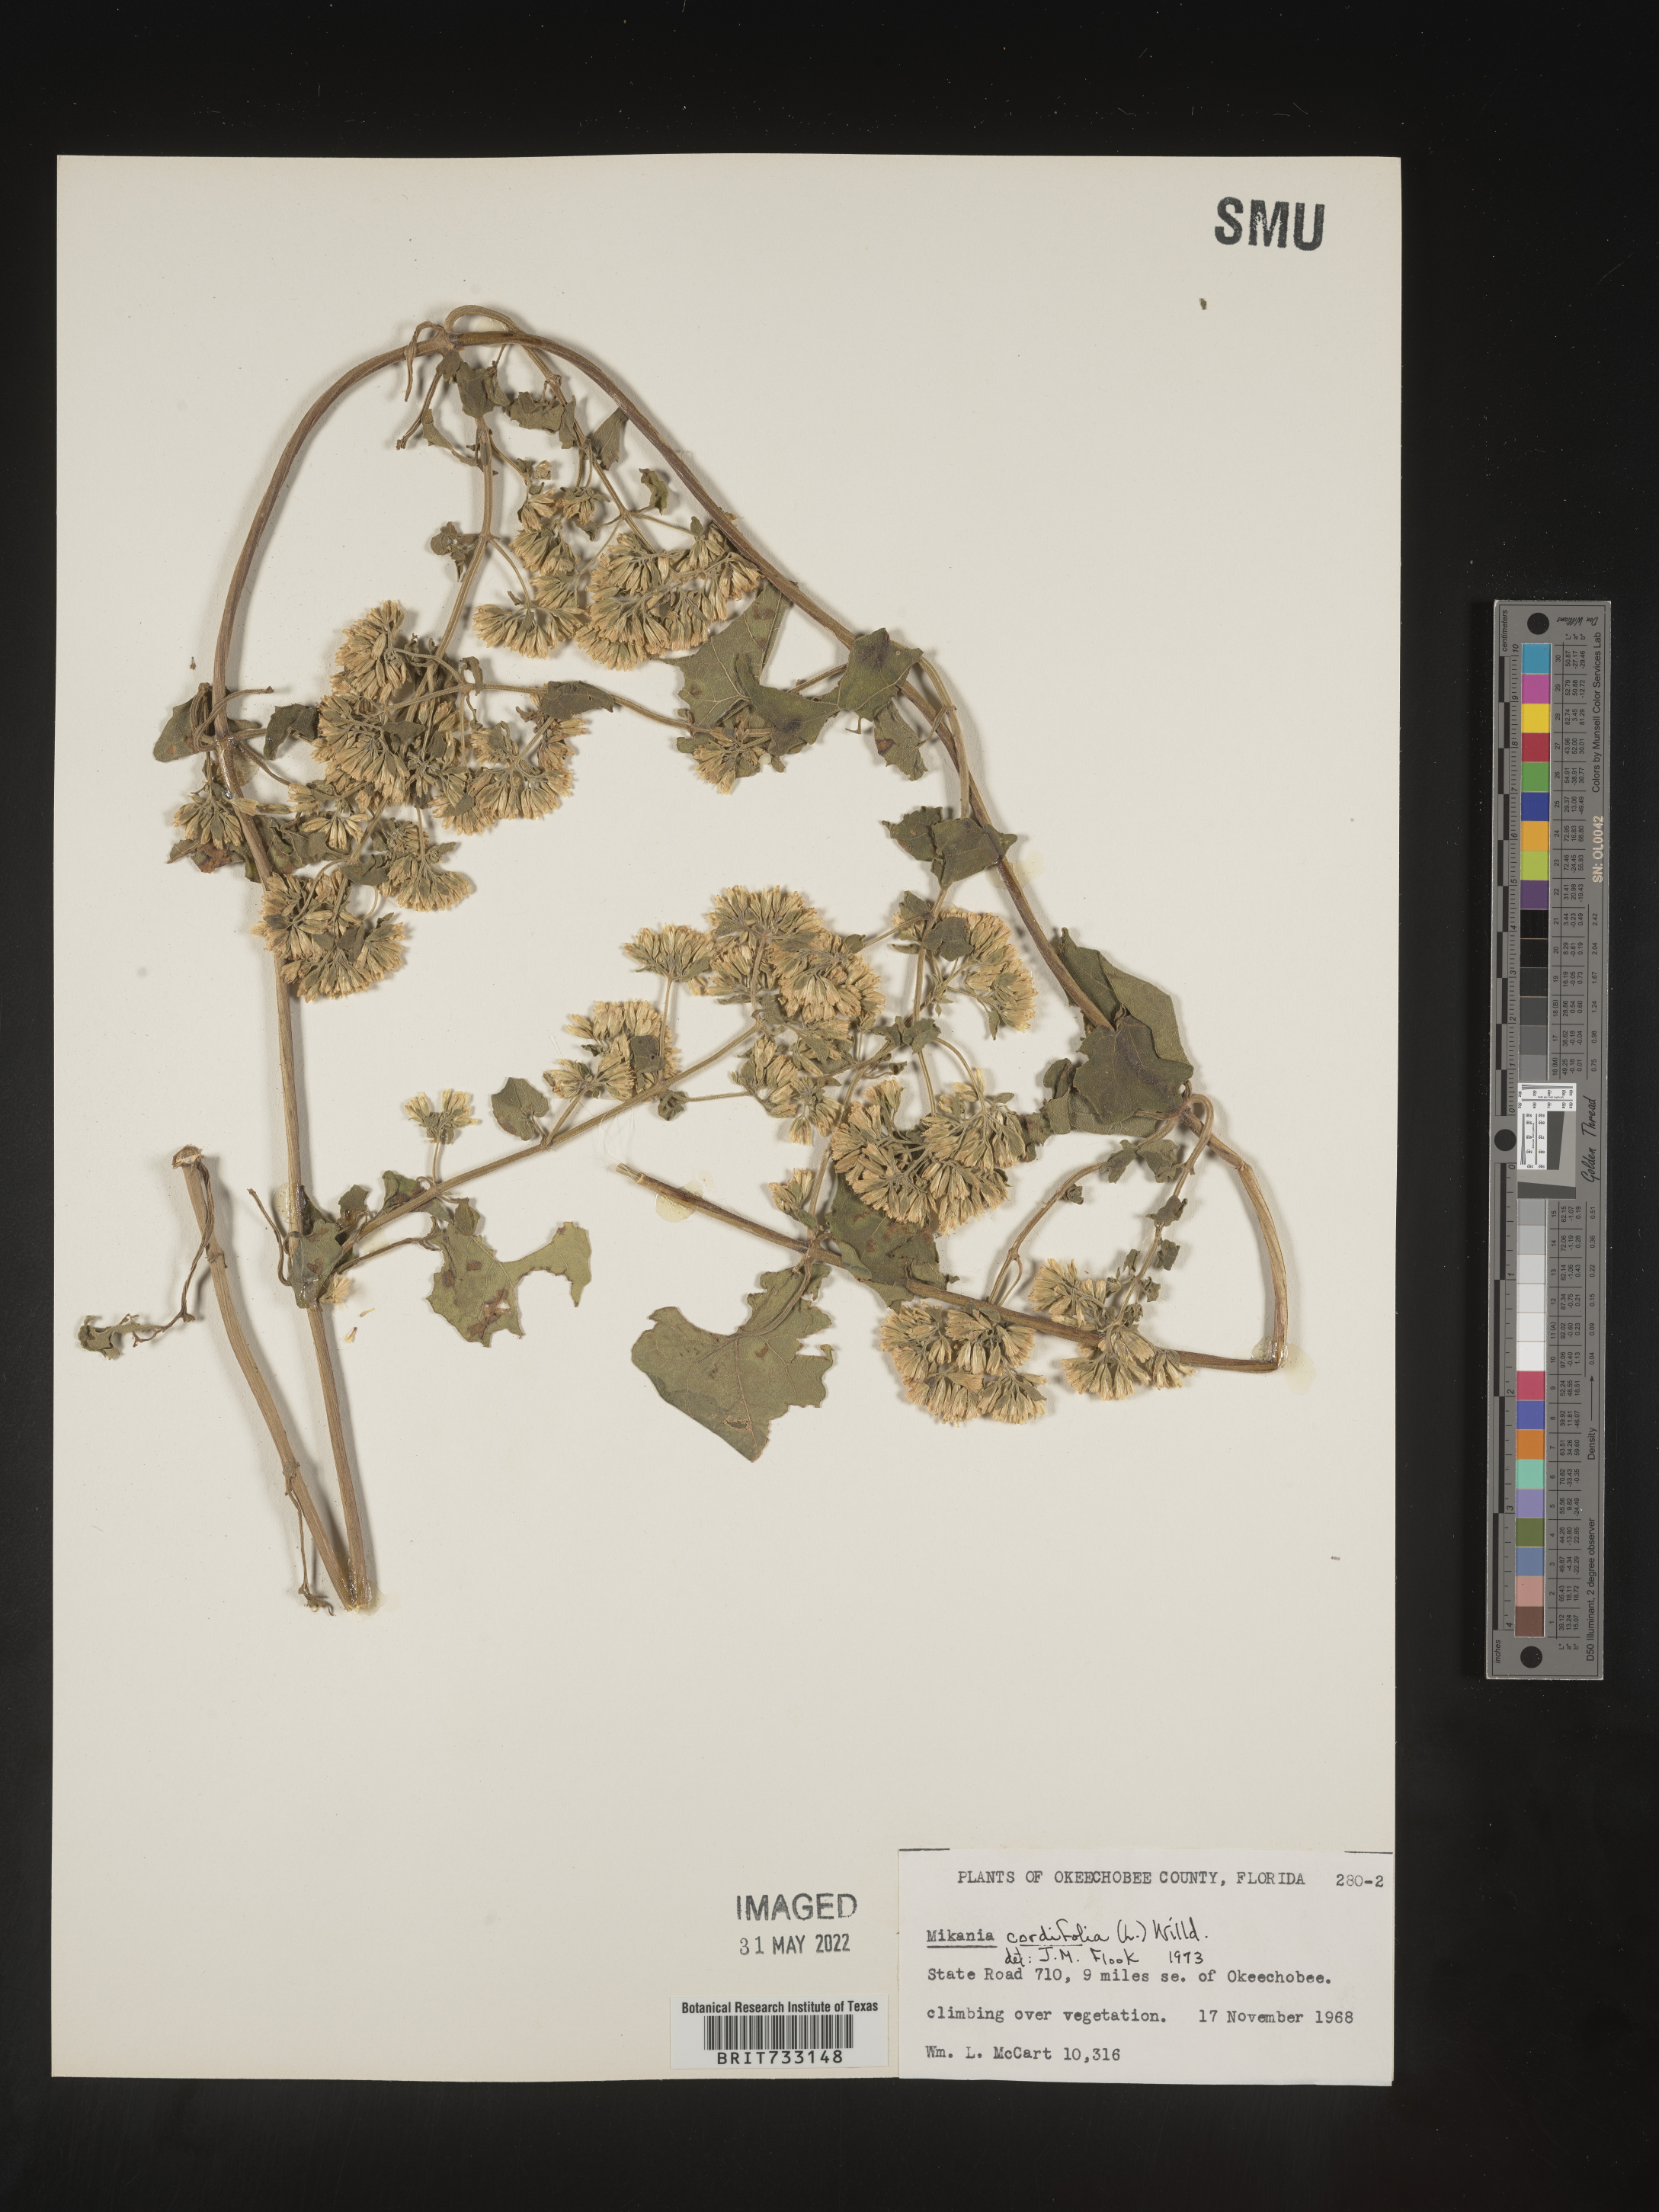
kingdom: Plantae
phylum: Tracheophyta
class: Magnoliopsida
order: Asterales
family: Asteraceae
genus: Mikania
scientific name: Mikania
